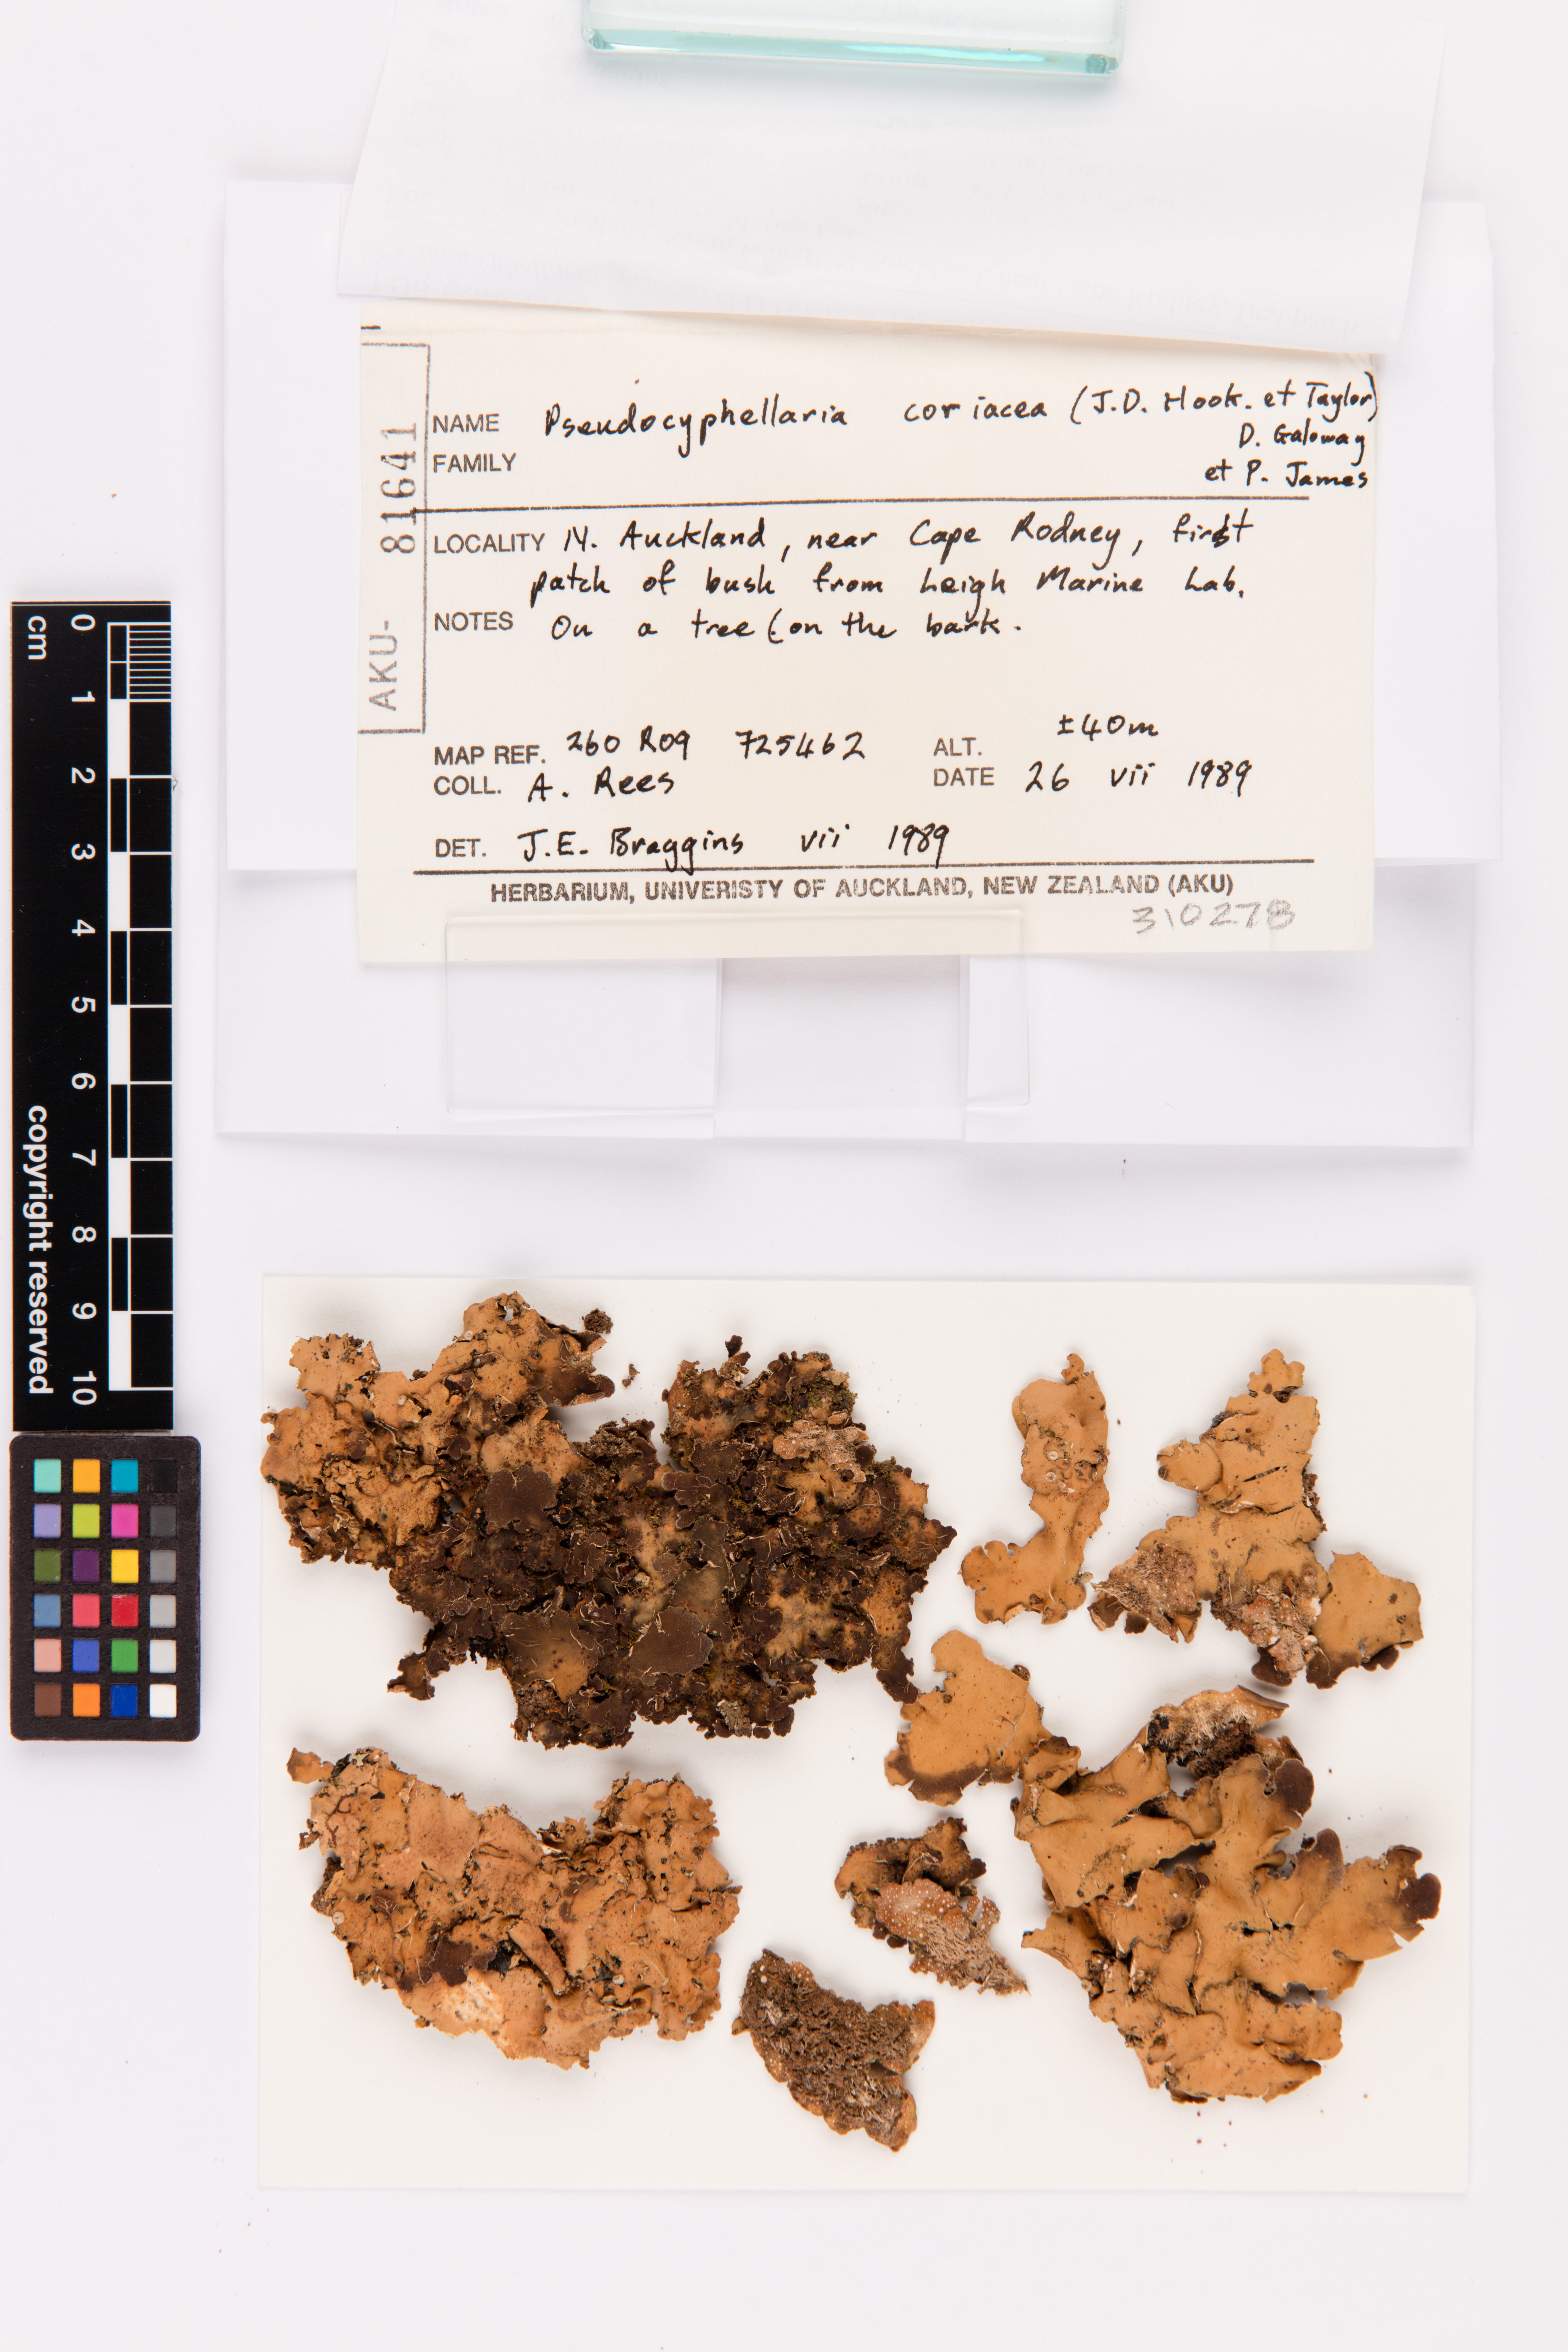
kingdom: Fungi
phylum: Ascomycota
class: Lecanoromycetes
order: Peltigerales
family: Lobariaceae
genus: Pseudocyphellaria
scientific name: Pseudocyphellaria coriacea
